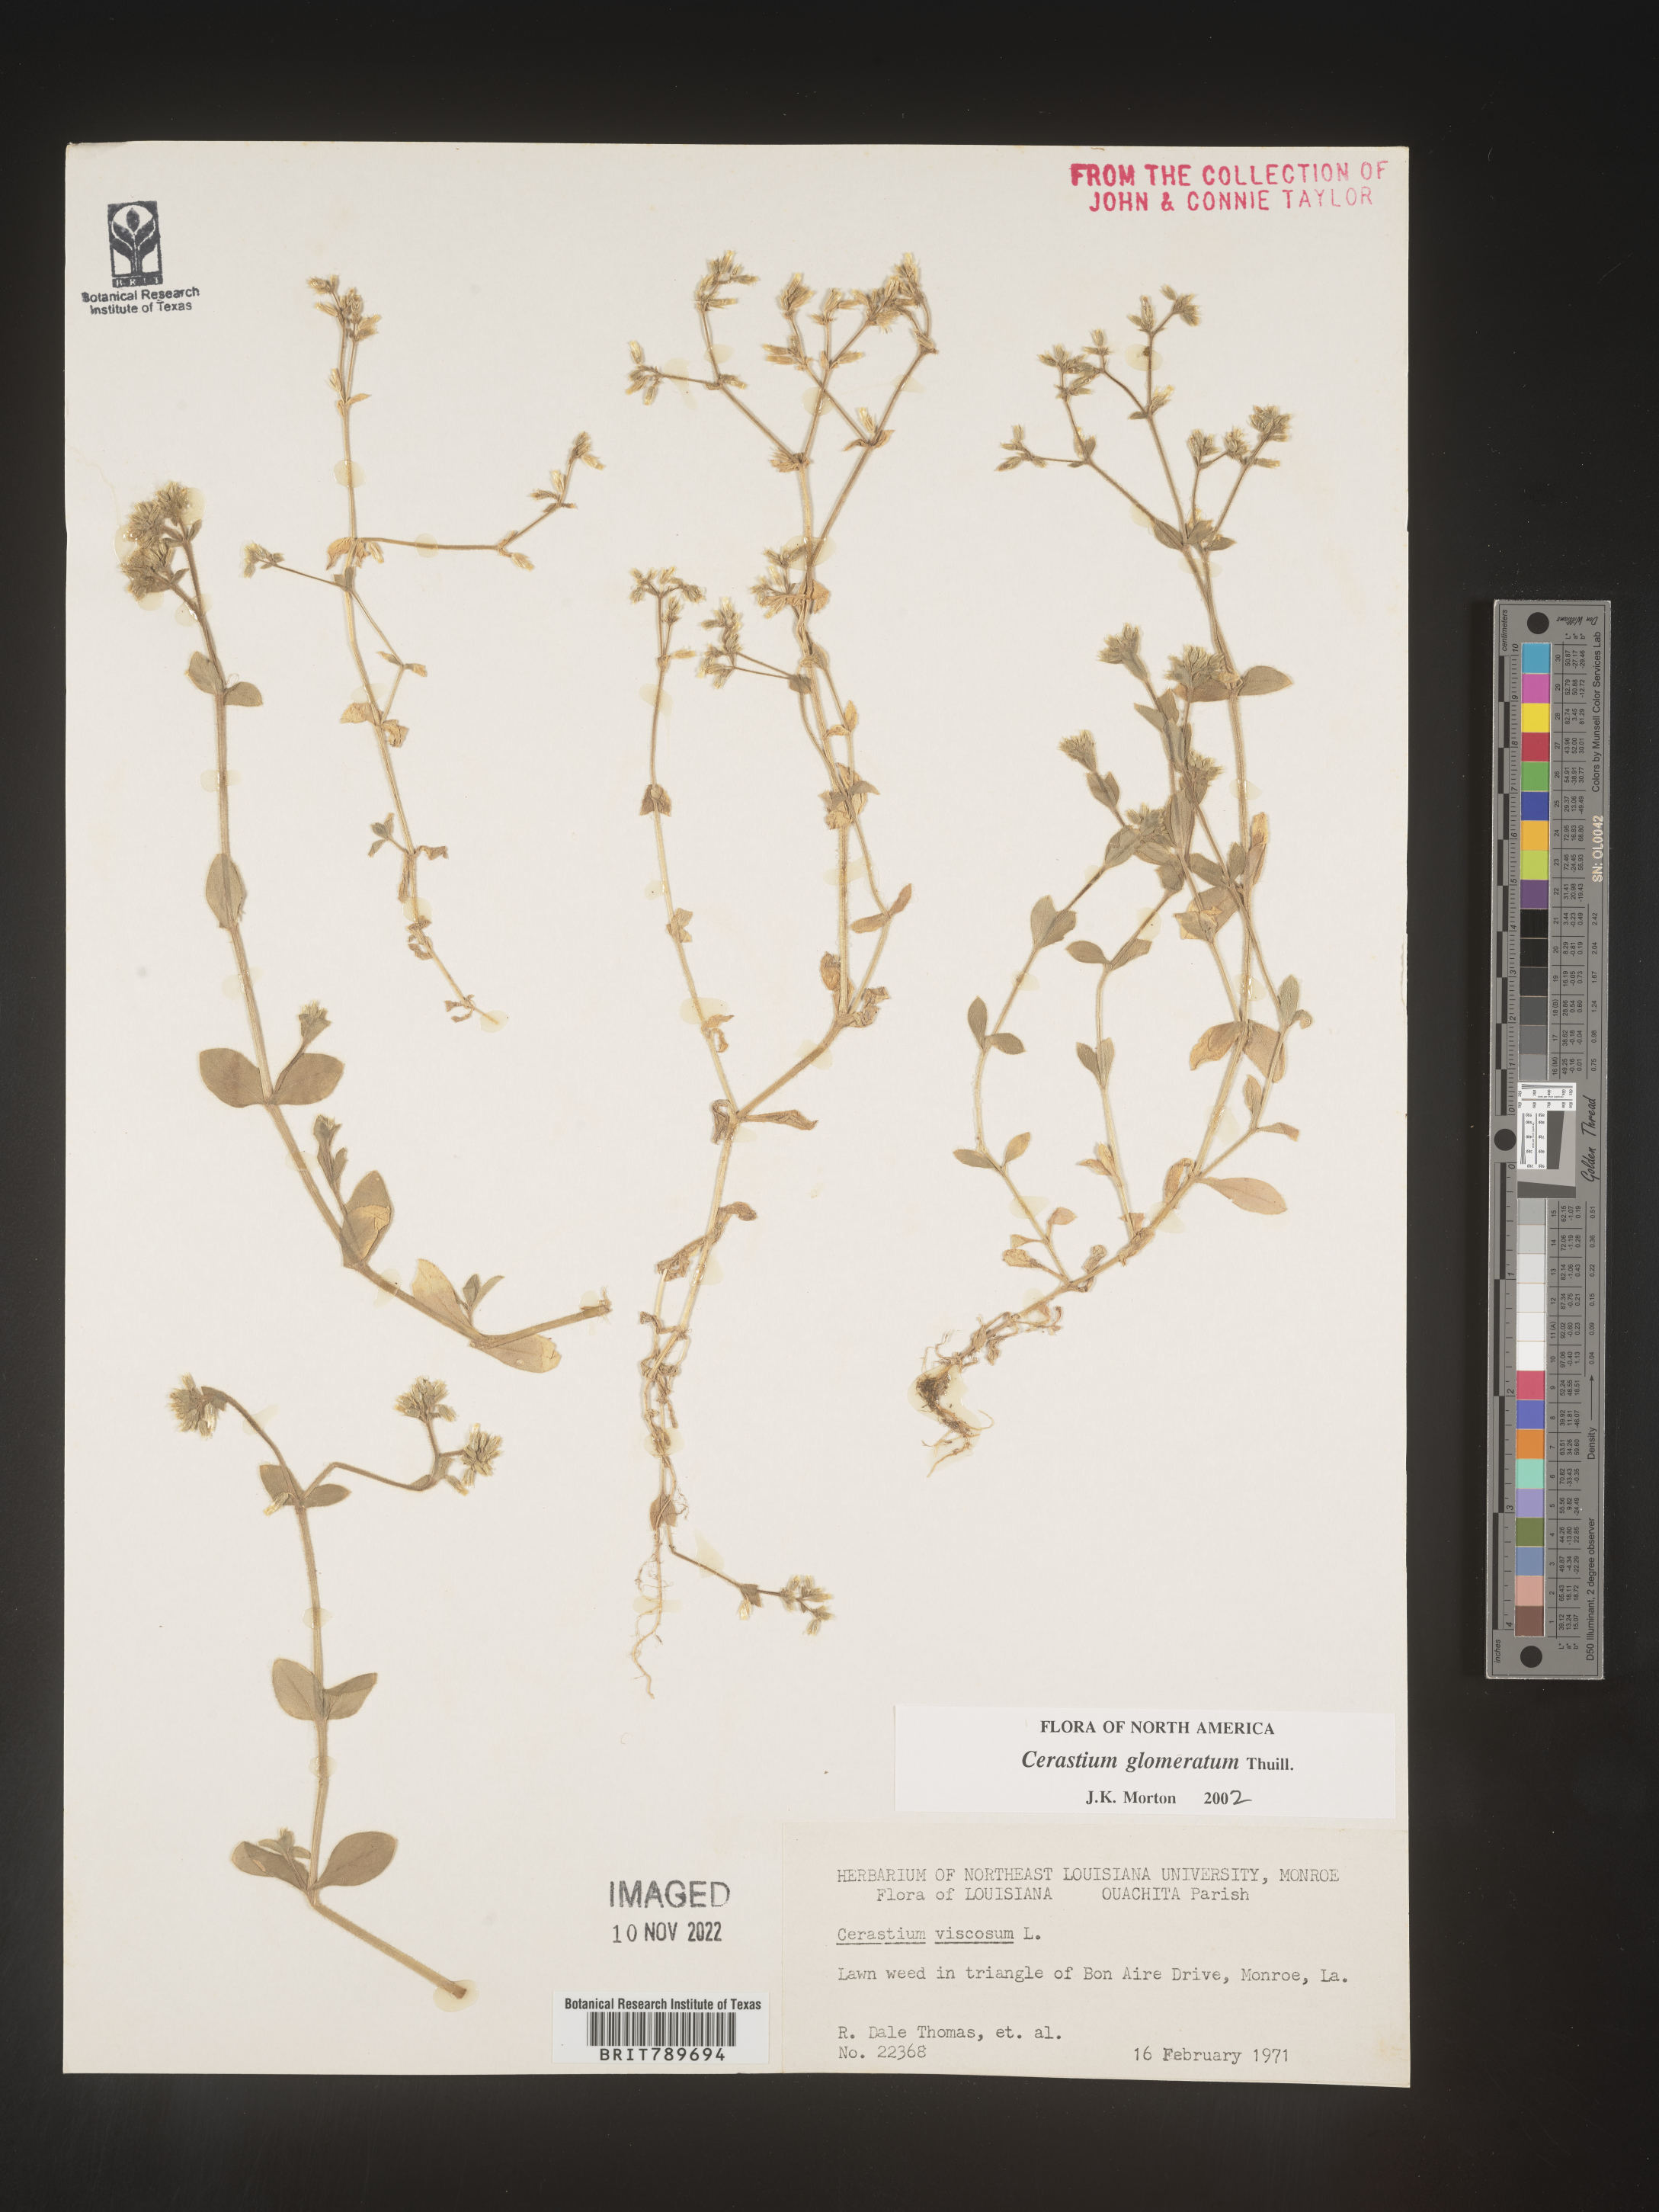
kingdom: Plantae
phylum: Tracheophyta
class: Magnoliopsida
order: Caryophyllales
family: Caryophyllaceae
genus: Cerastium
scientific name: Cerastium glomeratum
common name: Sticky chickweed
